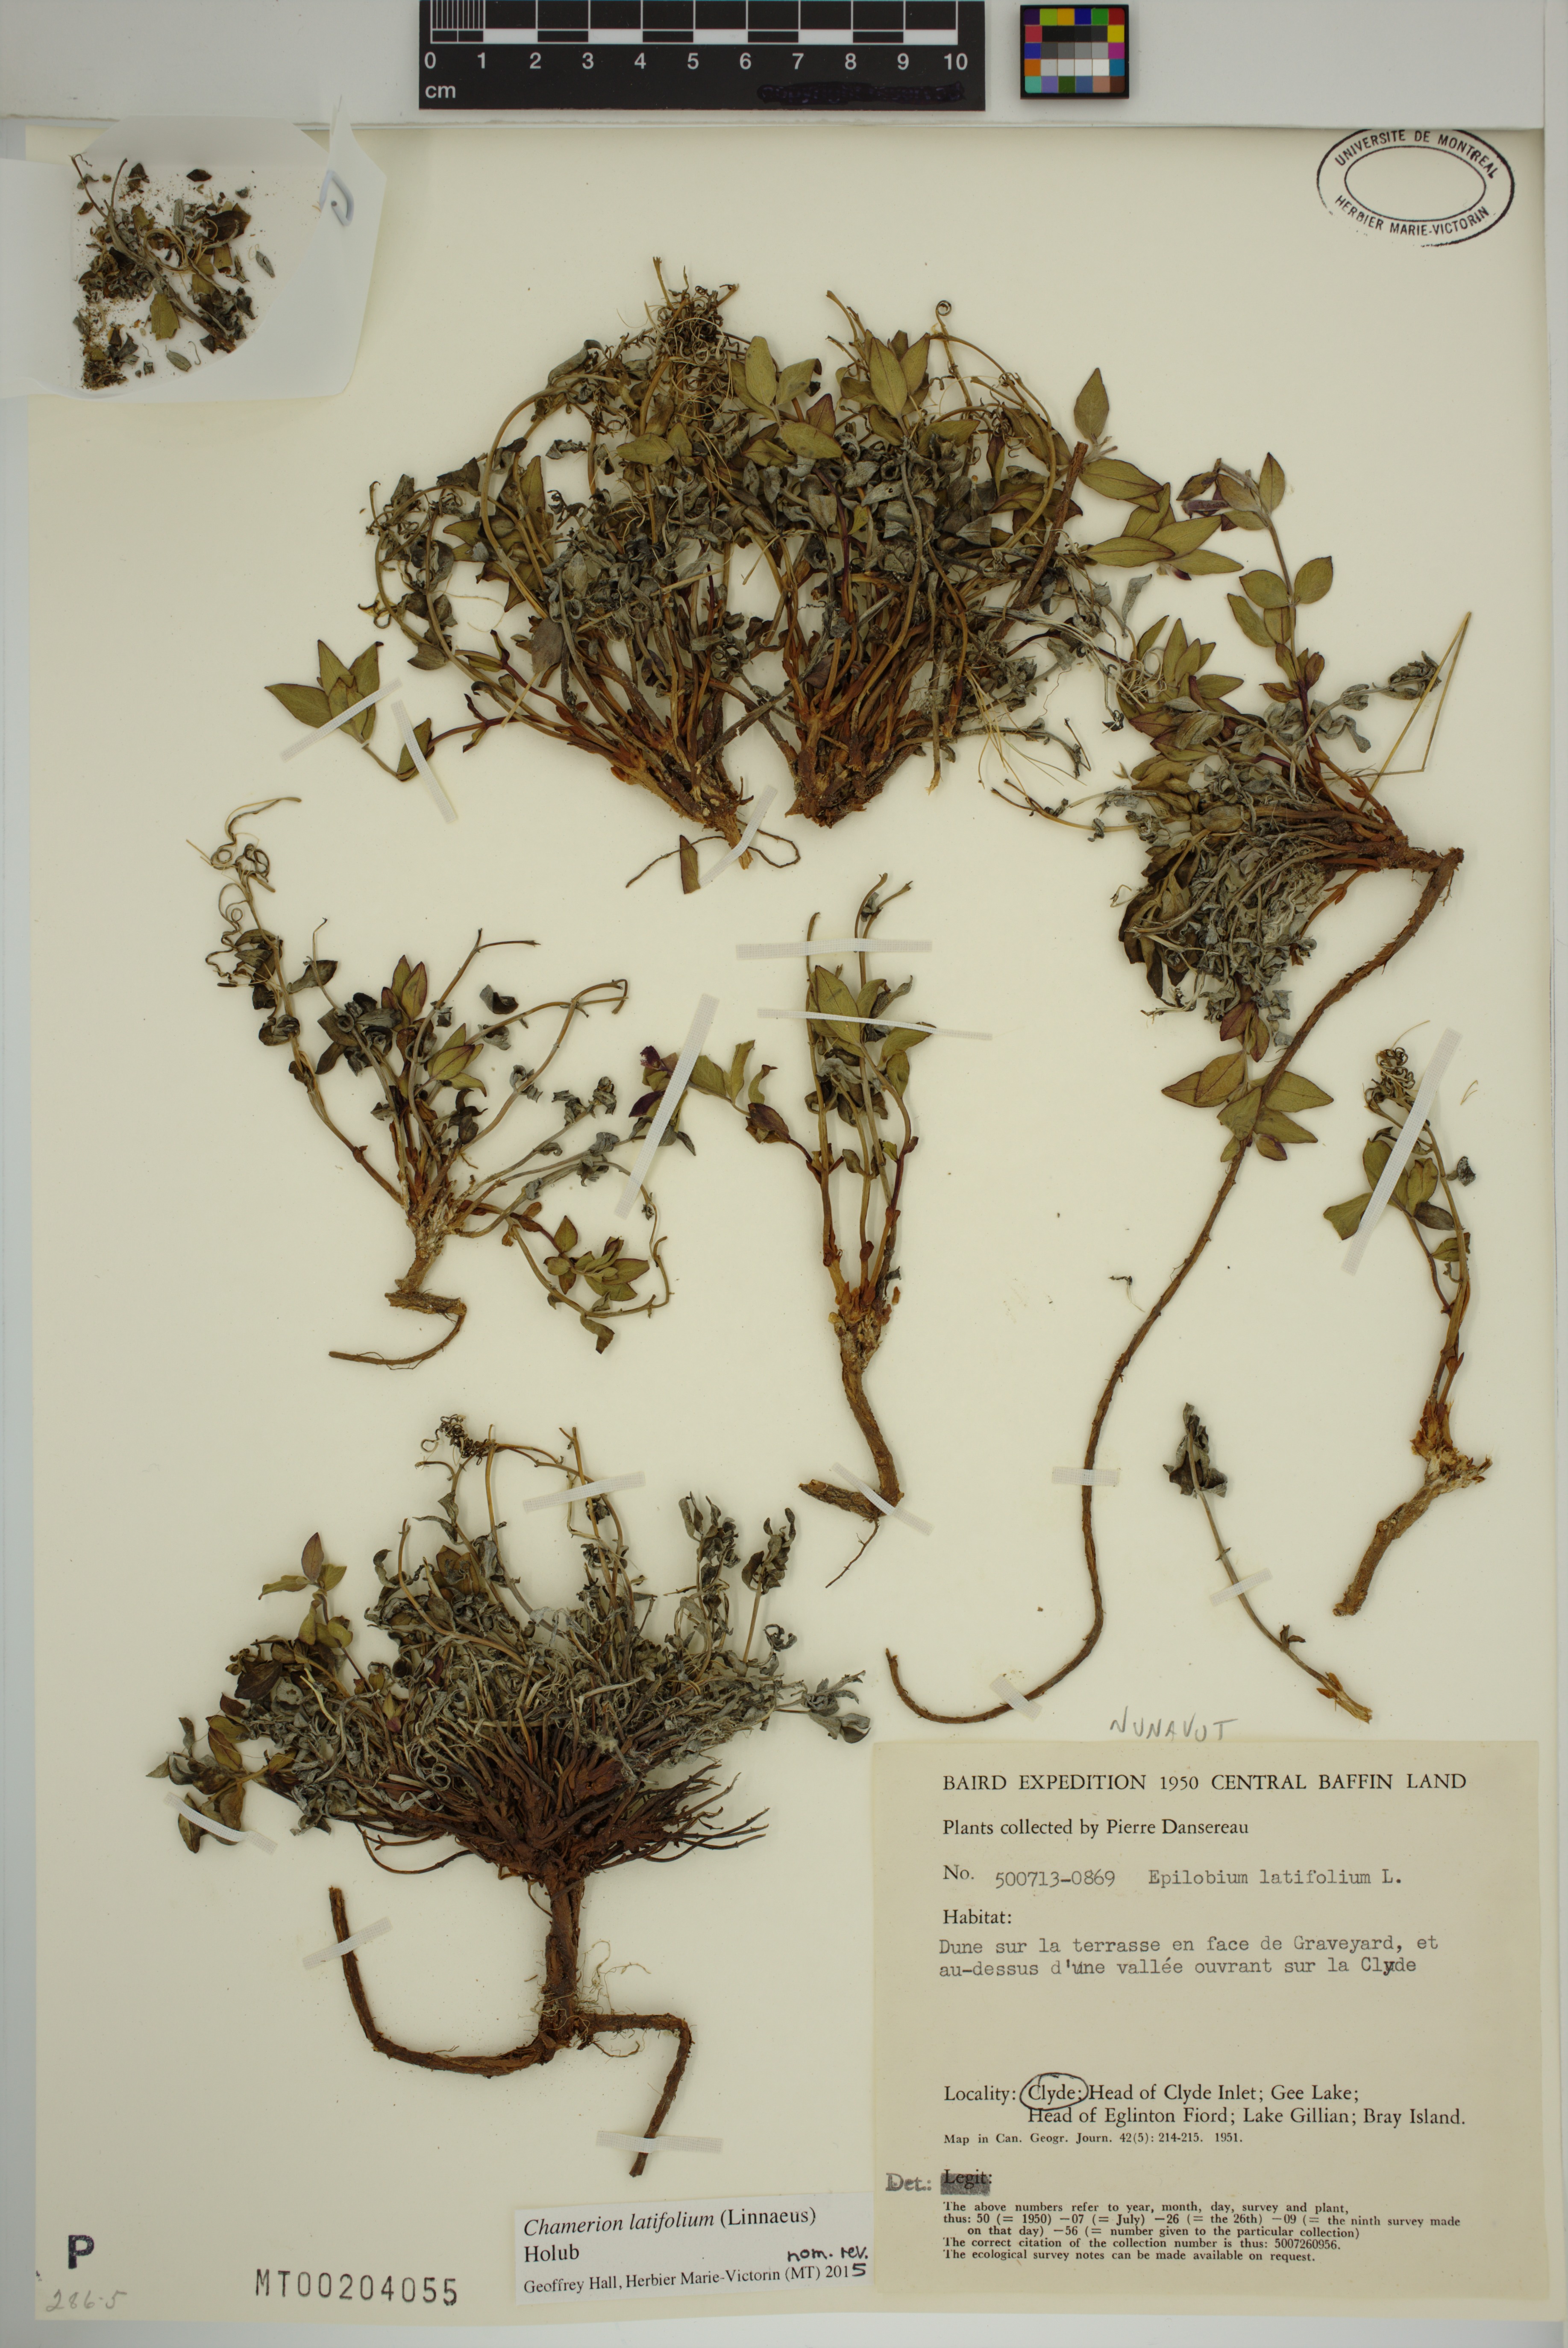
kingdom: Plantae
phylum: Tracheophyta
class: Magnoliopsida
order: Myrtales
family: Onagraceae
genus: Chamaenerion
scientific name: Chamaenerion latifolium
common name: Dwarf fireweed
